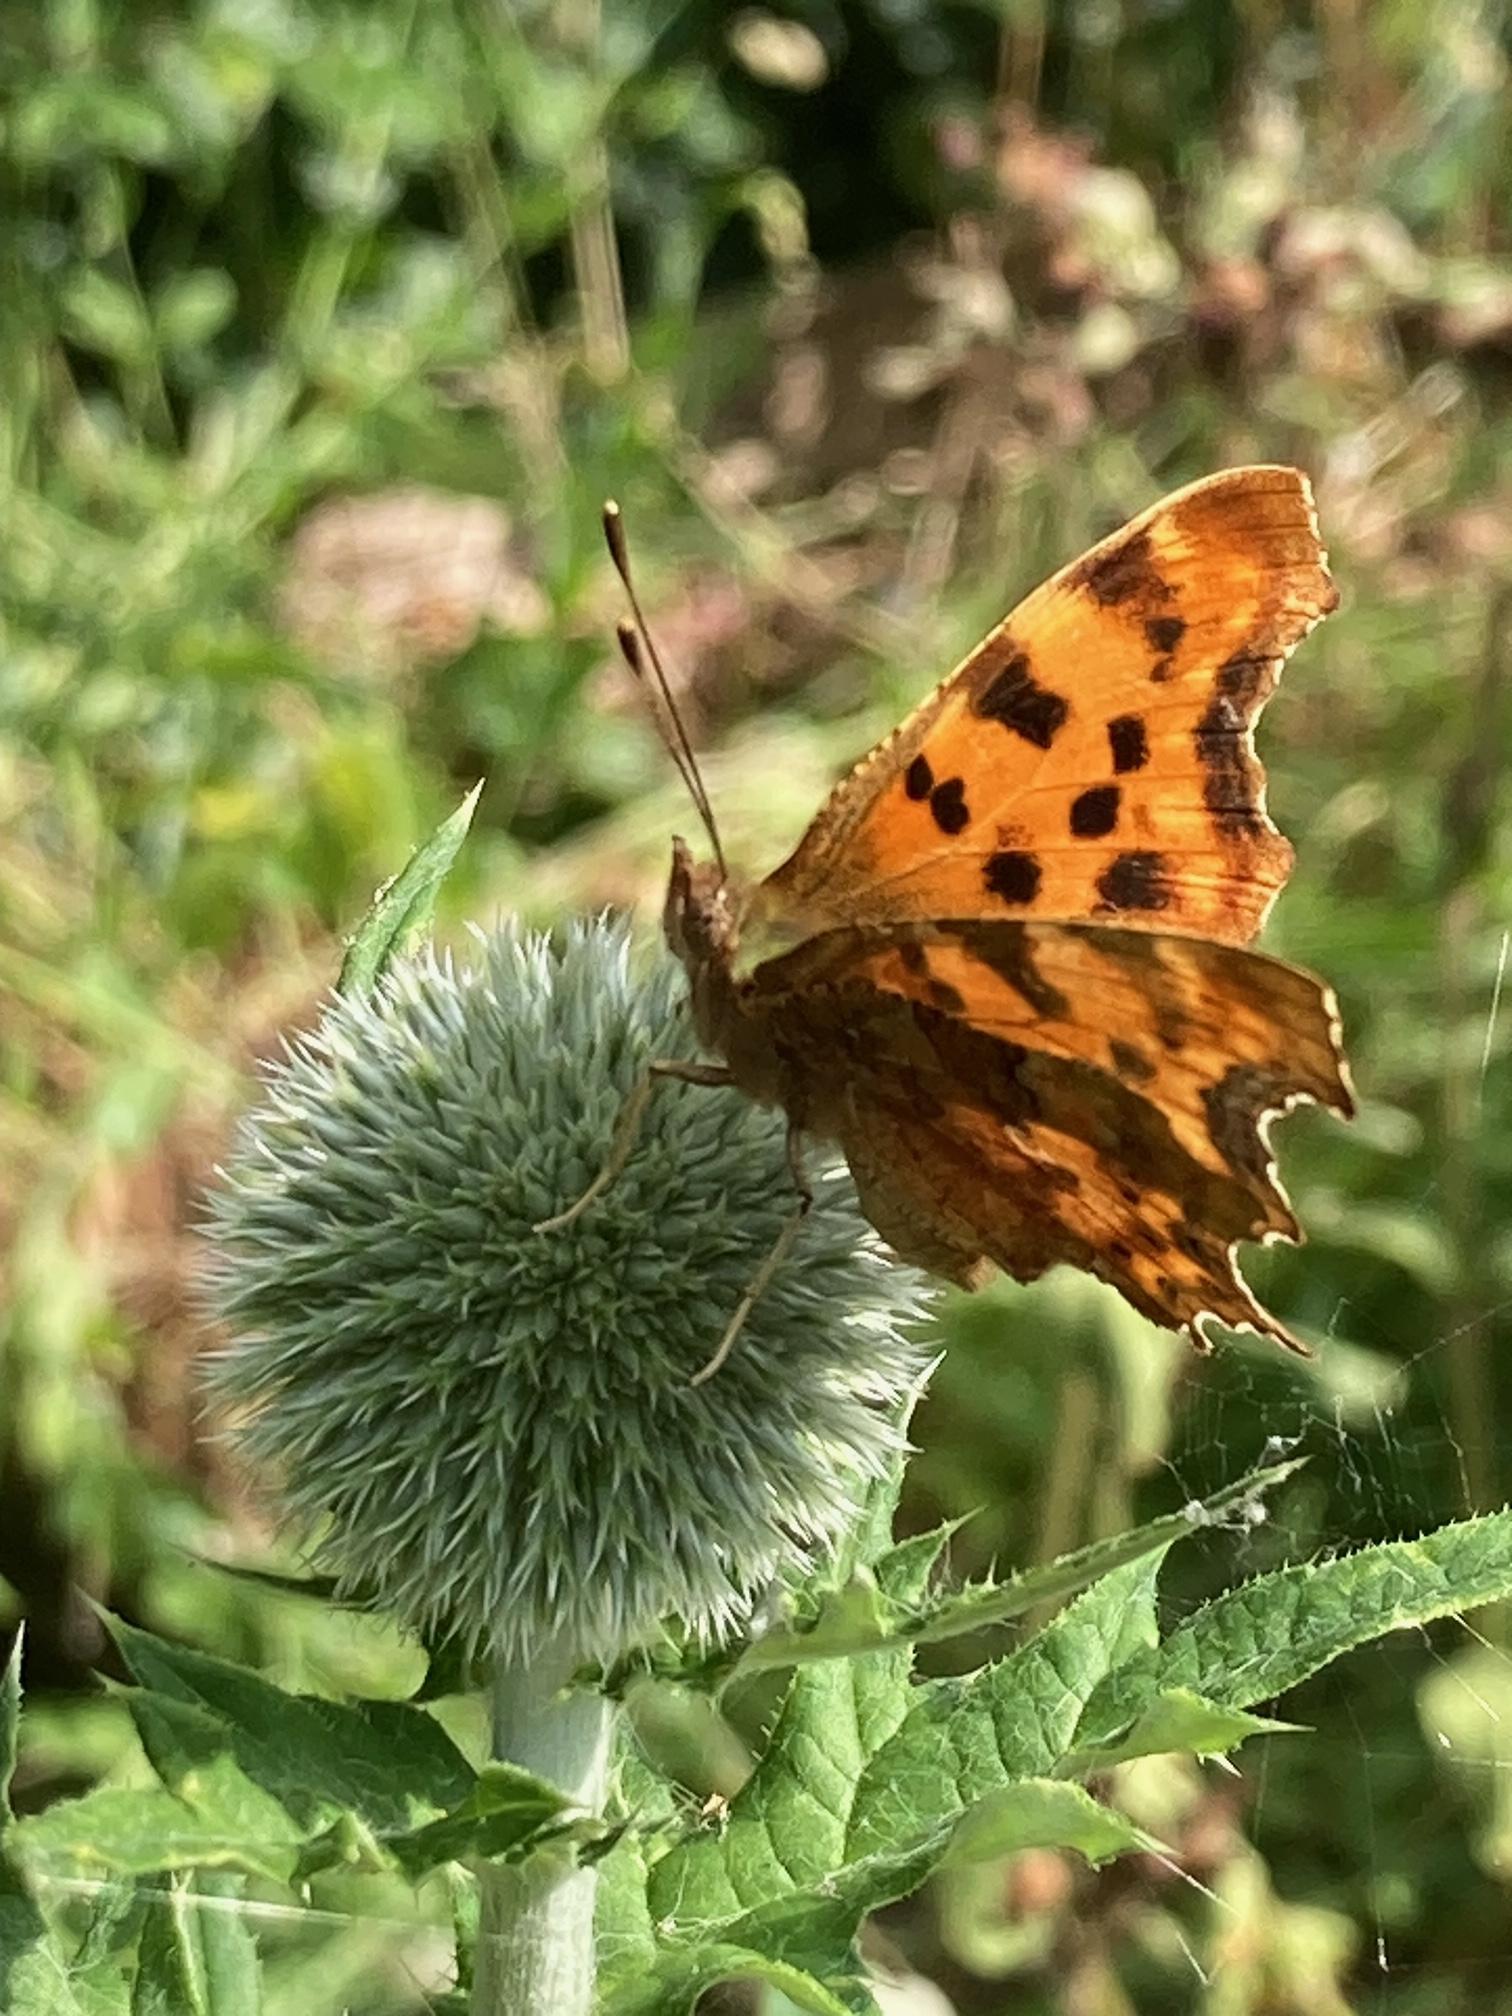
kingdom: Animalia
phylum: Arthropoda
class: Insecta
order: Lepidoptera
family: Nymphalidae
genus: Polygonia
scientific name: Polygonia c-album
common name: Det hvide C
